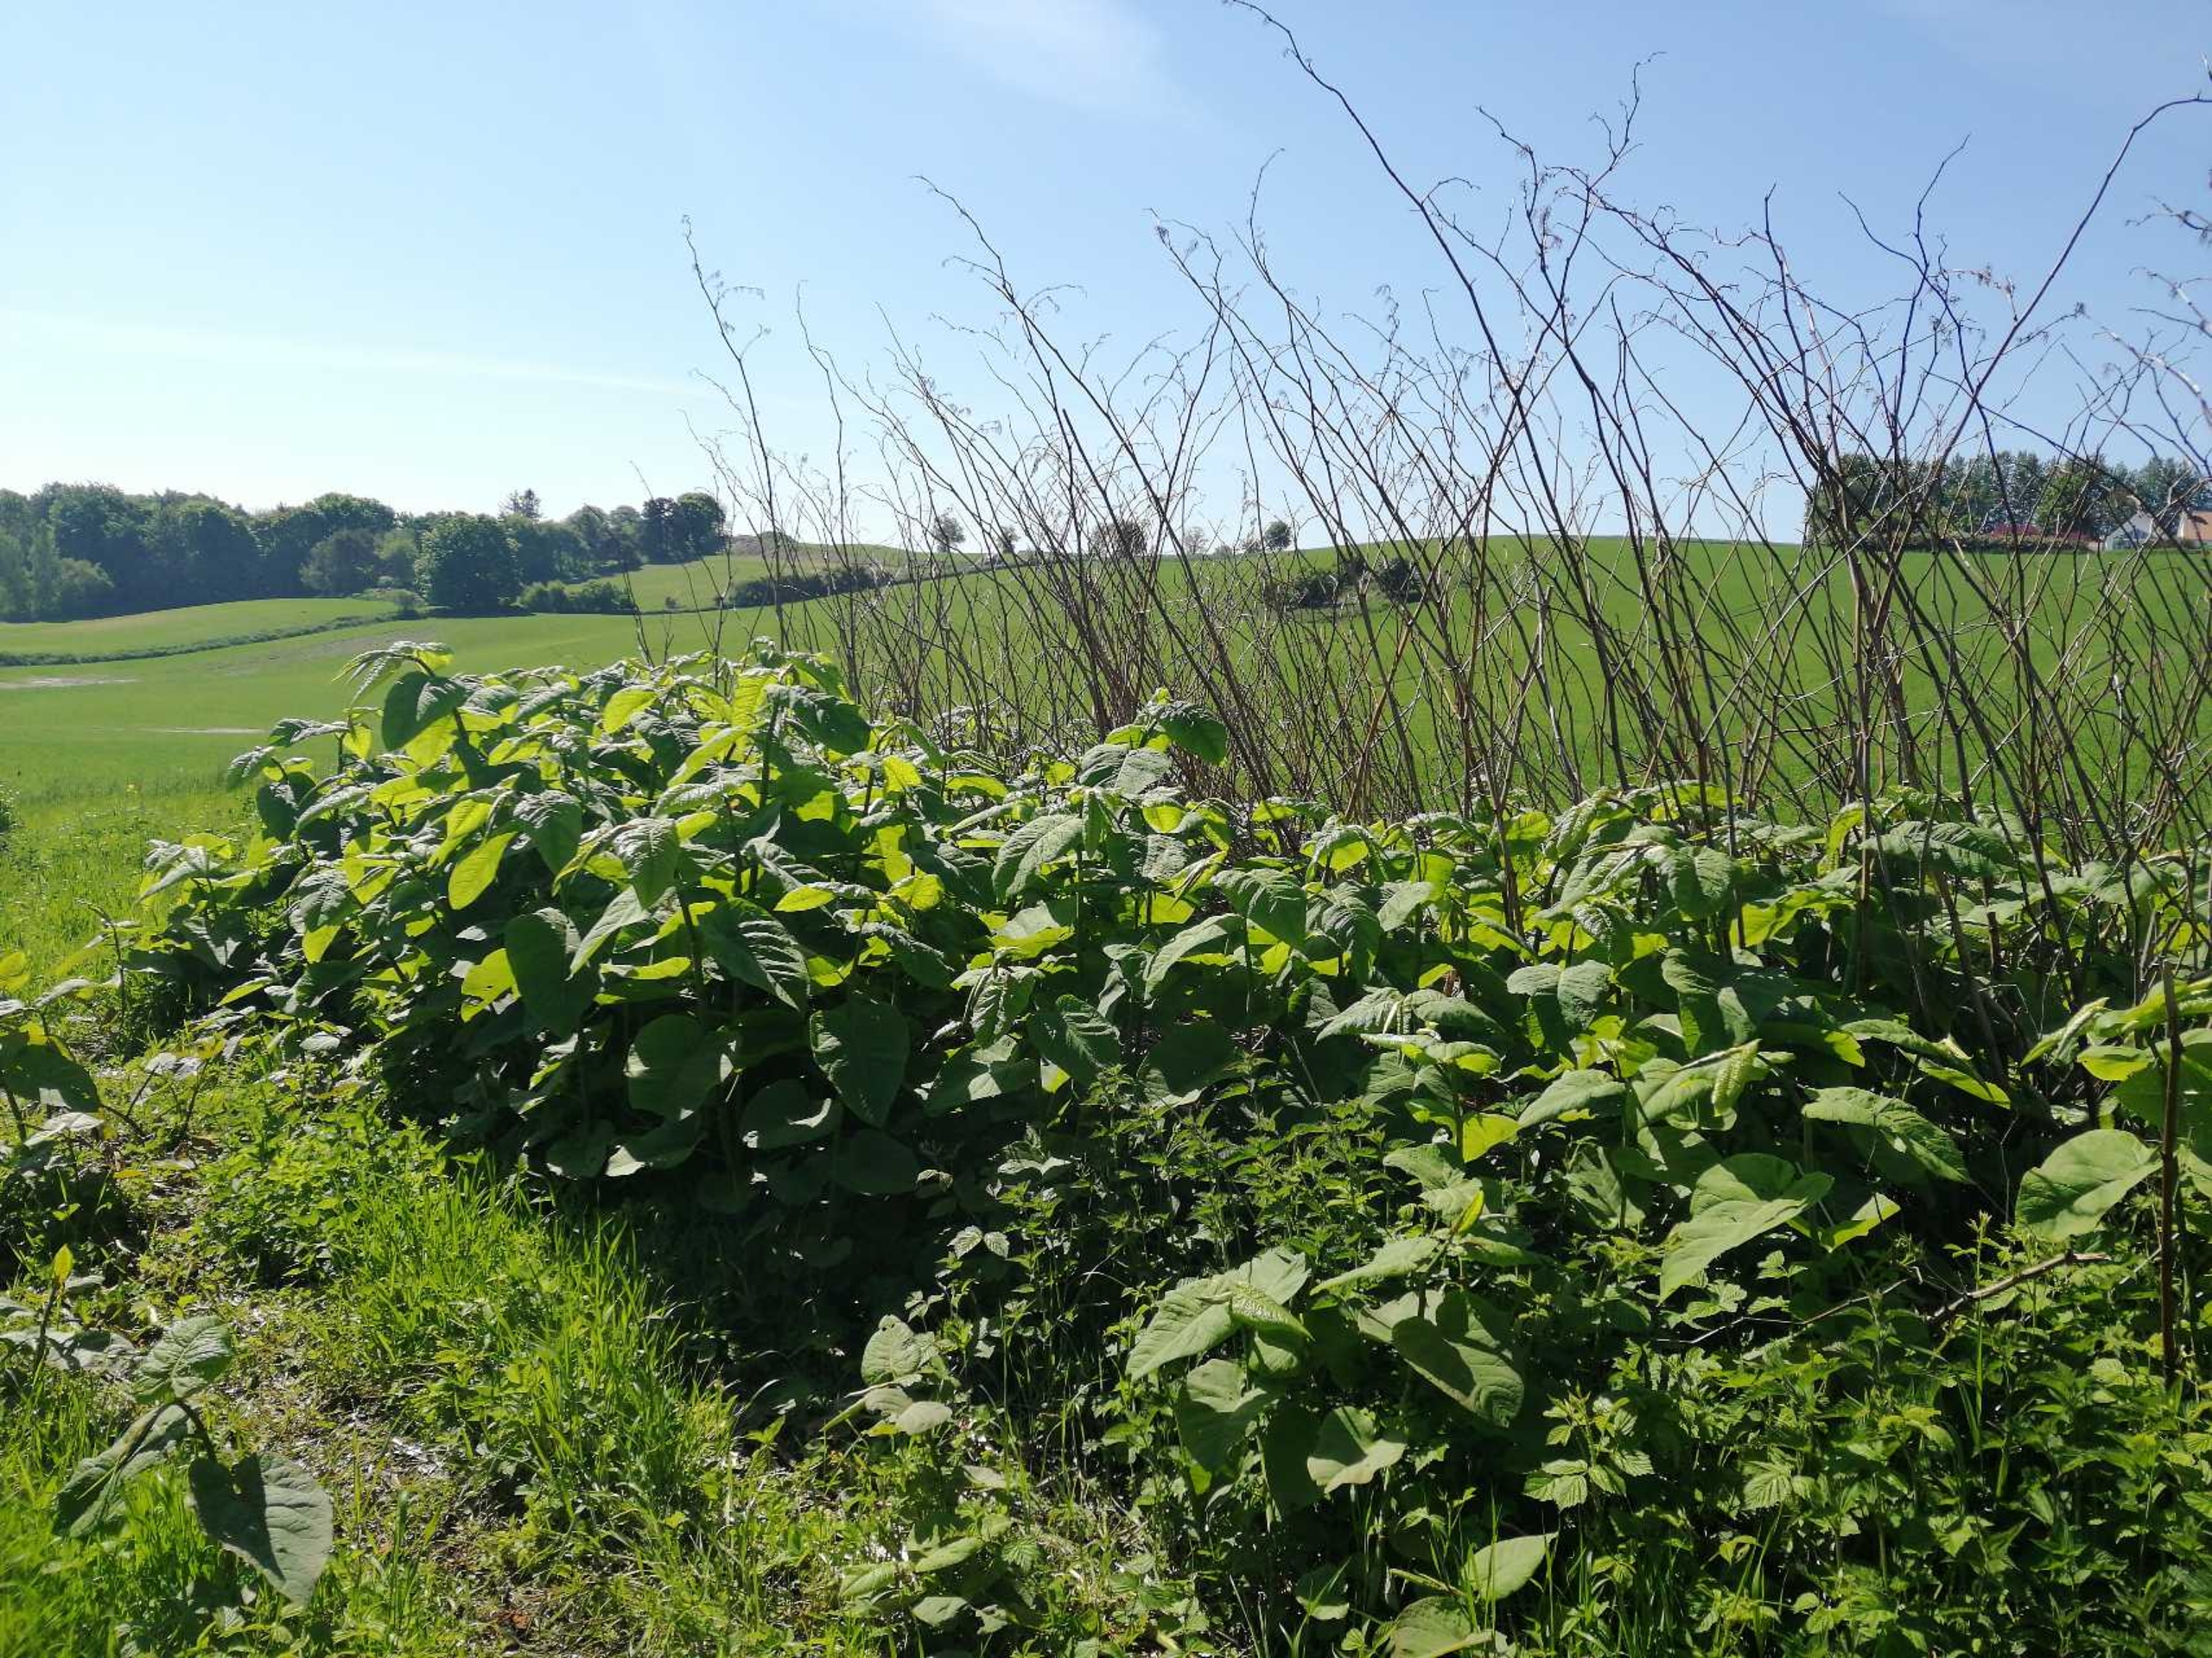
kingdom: Plantae
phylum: Tracheophyta
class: Magnoliopsida
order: Caryophyllales
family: Polygonaceae
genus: Reynoutria
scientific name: Reynoutria sachalinensis
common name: Kæmpe-pileurt
